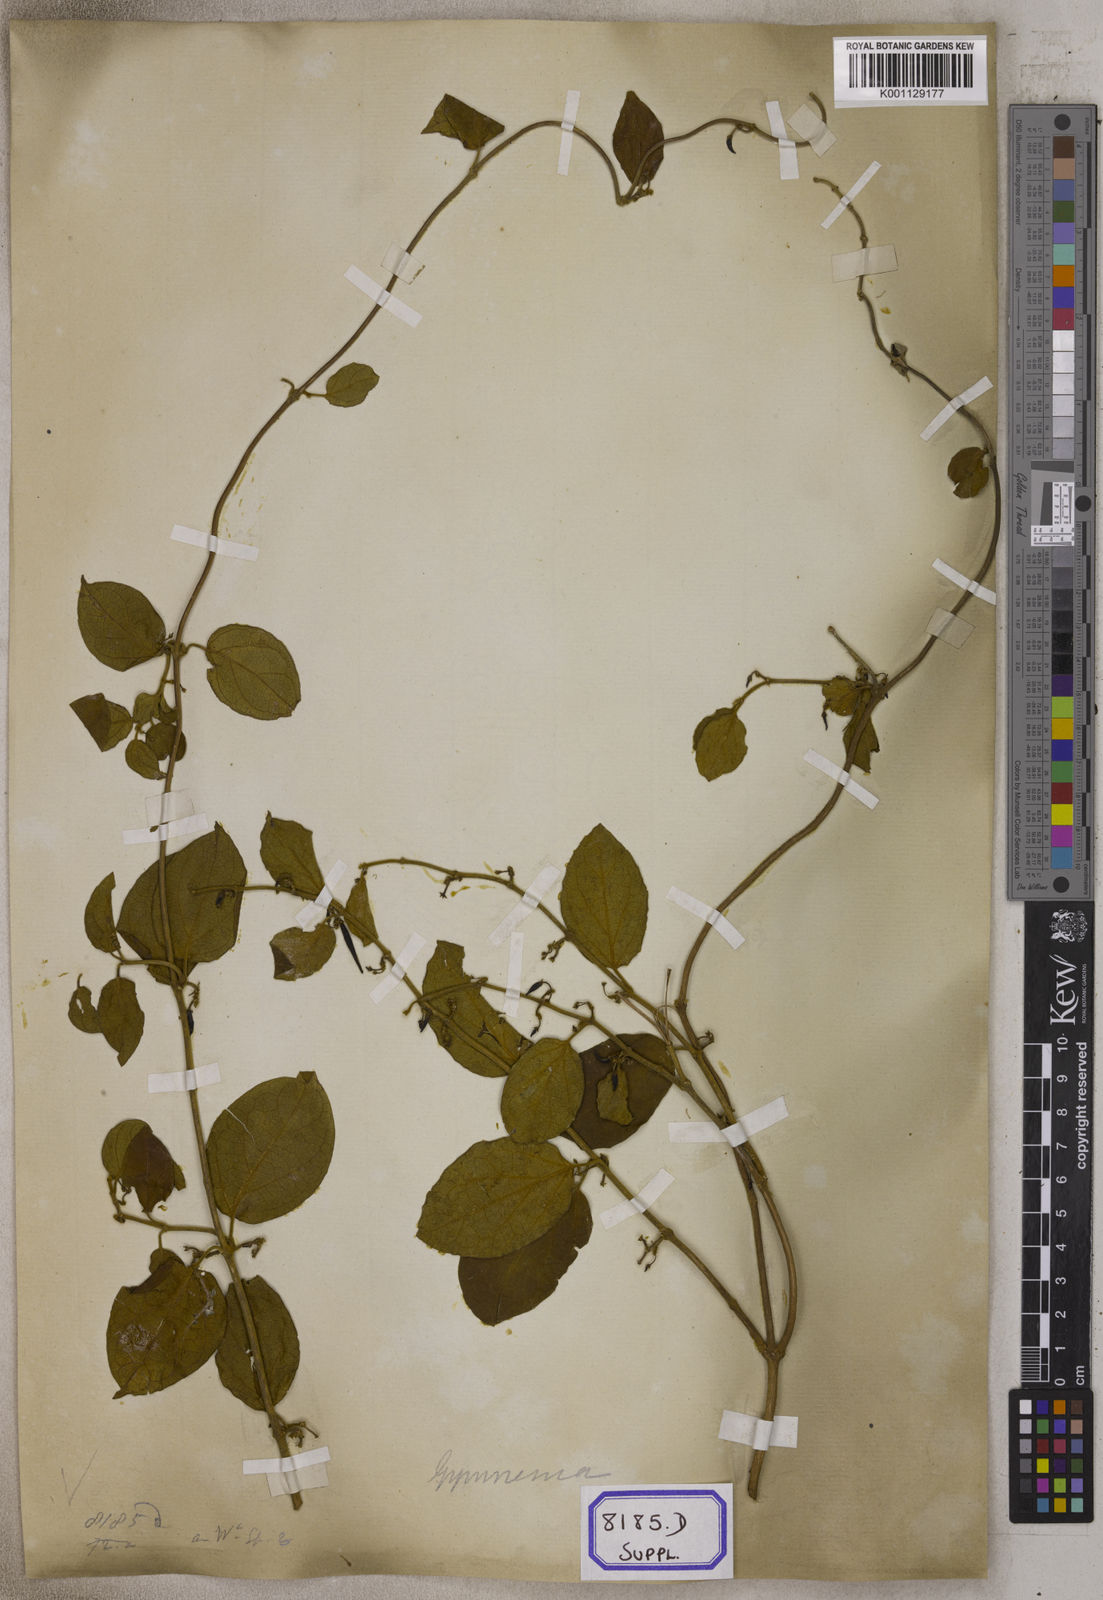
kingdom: Plantae
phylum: Tracheophyta
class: Magnoliopsida
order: Gentianales
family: Apocynaceae
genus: Gymnema
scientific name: Gymnema decaisneanum
